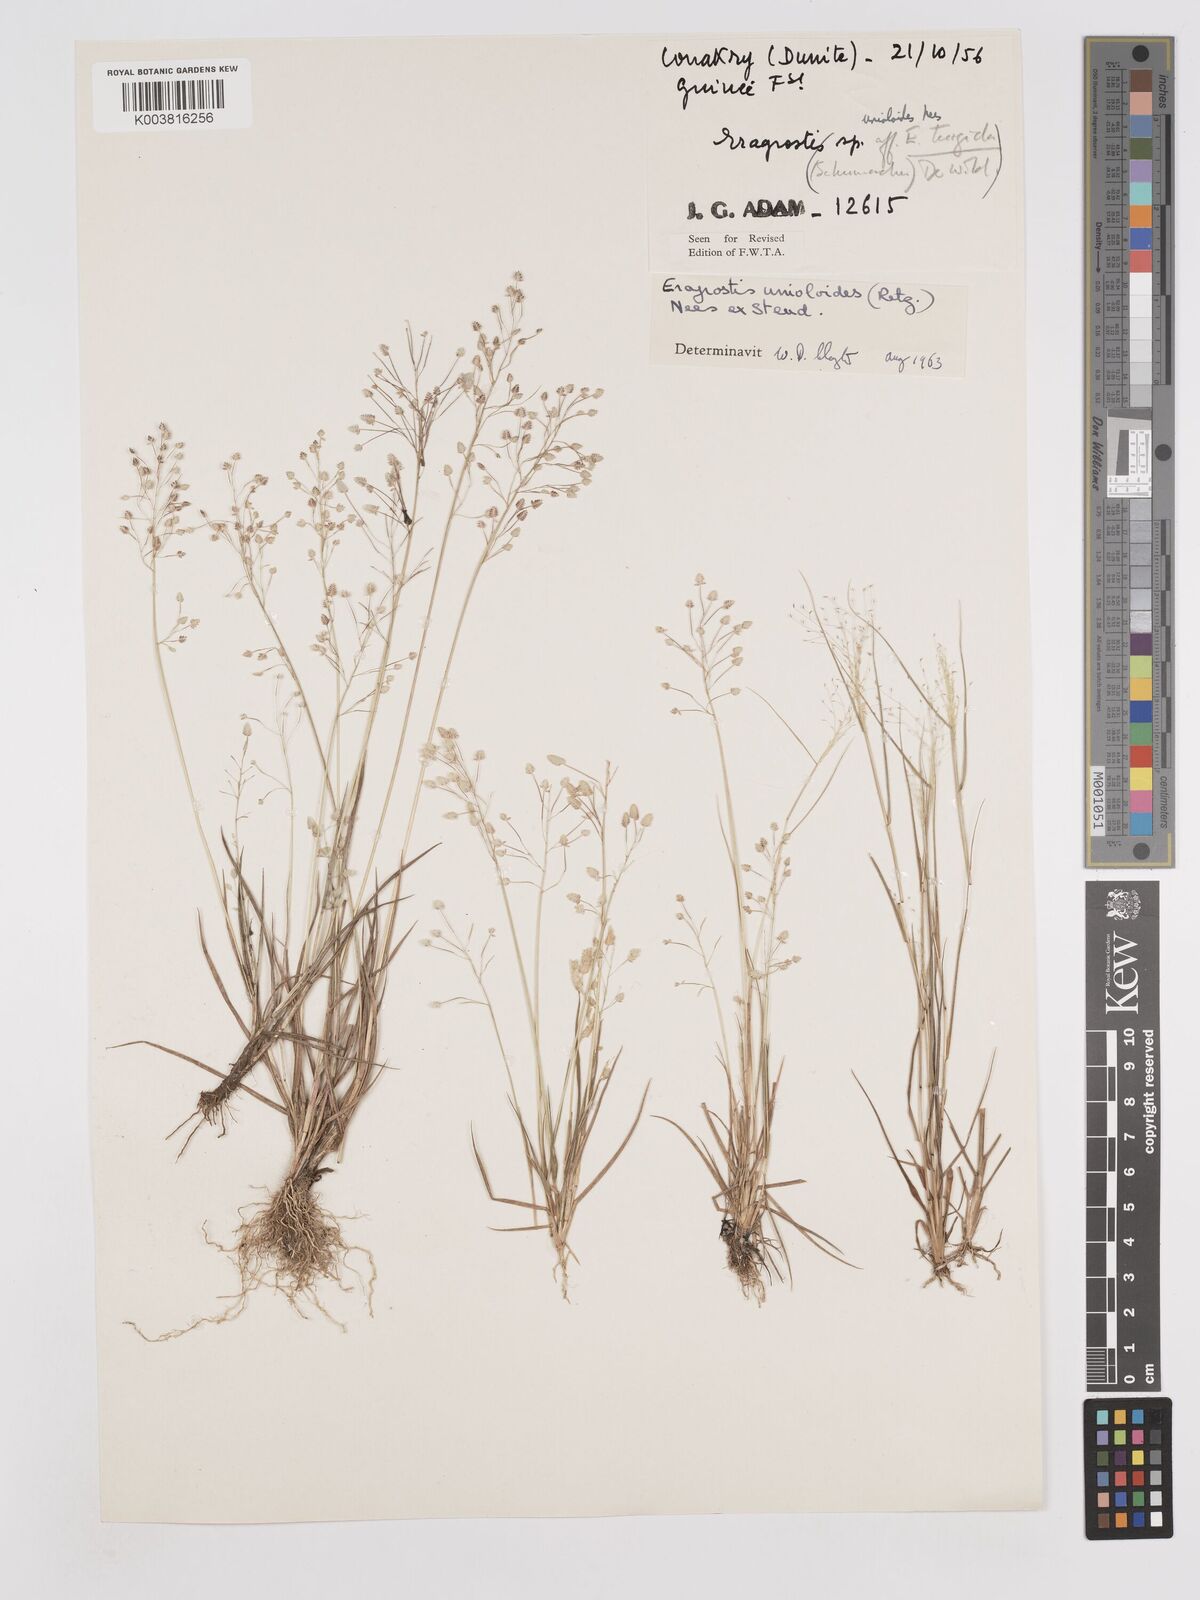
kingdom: Plantae
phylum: Tracheophyta
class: Liliopsida
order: Poales
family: Poaceae
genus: Eragrostis
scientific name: Eragrostis unioloides
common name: Chinese lovegrass
